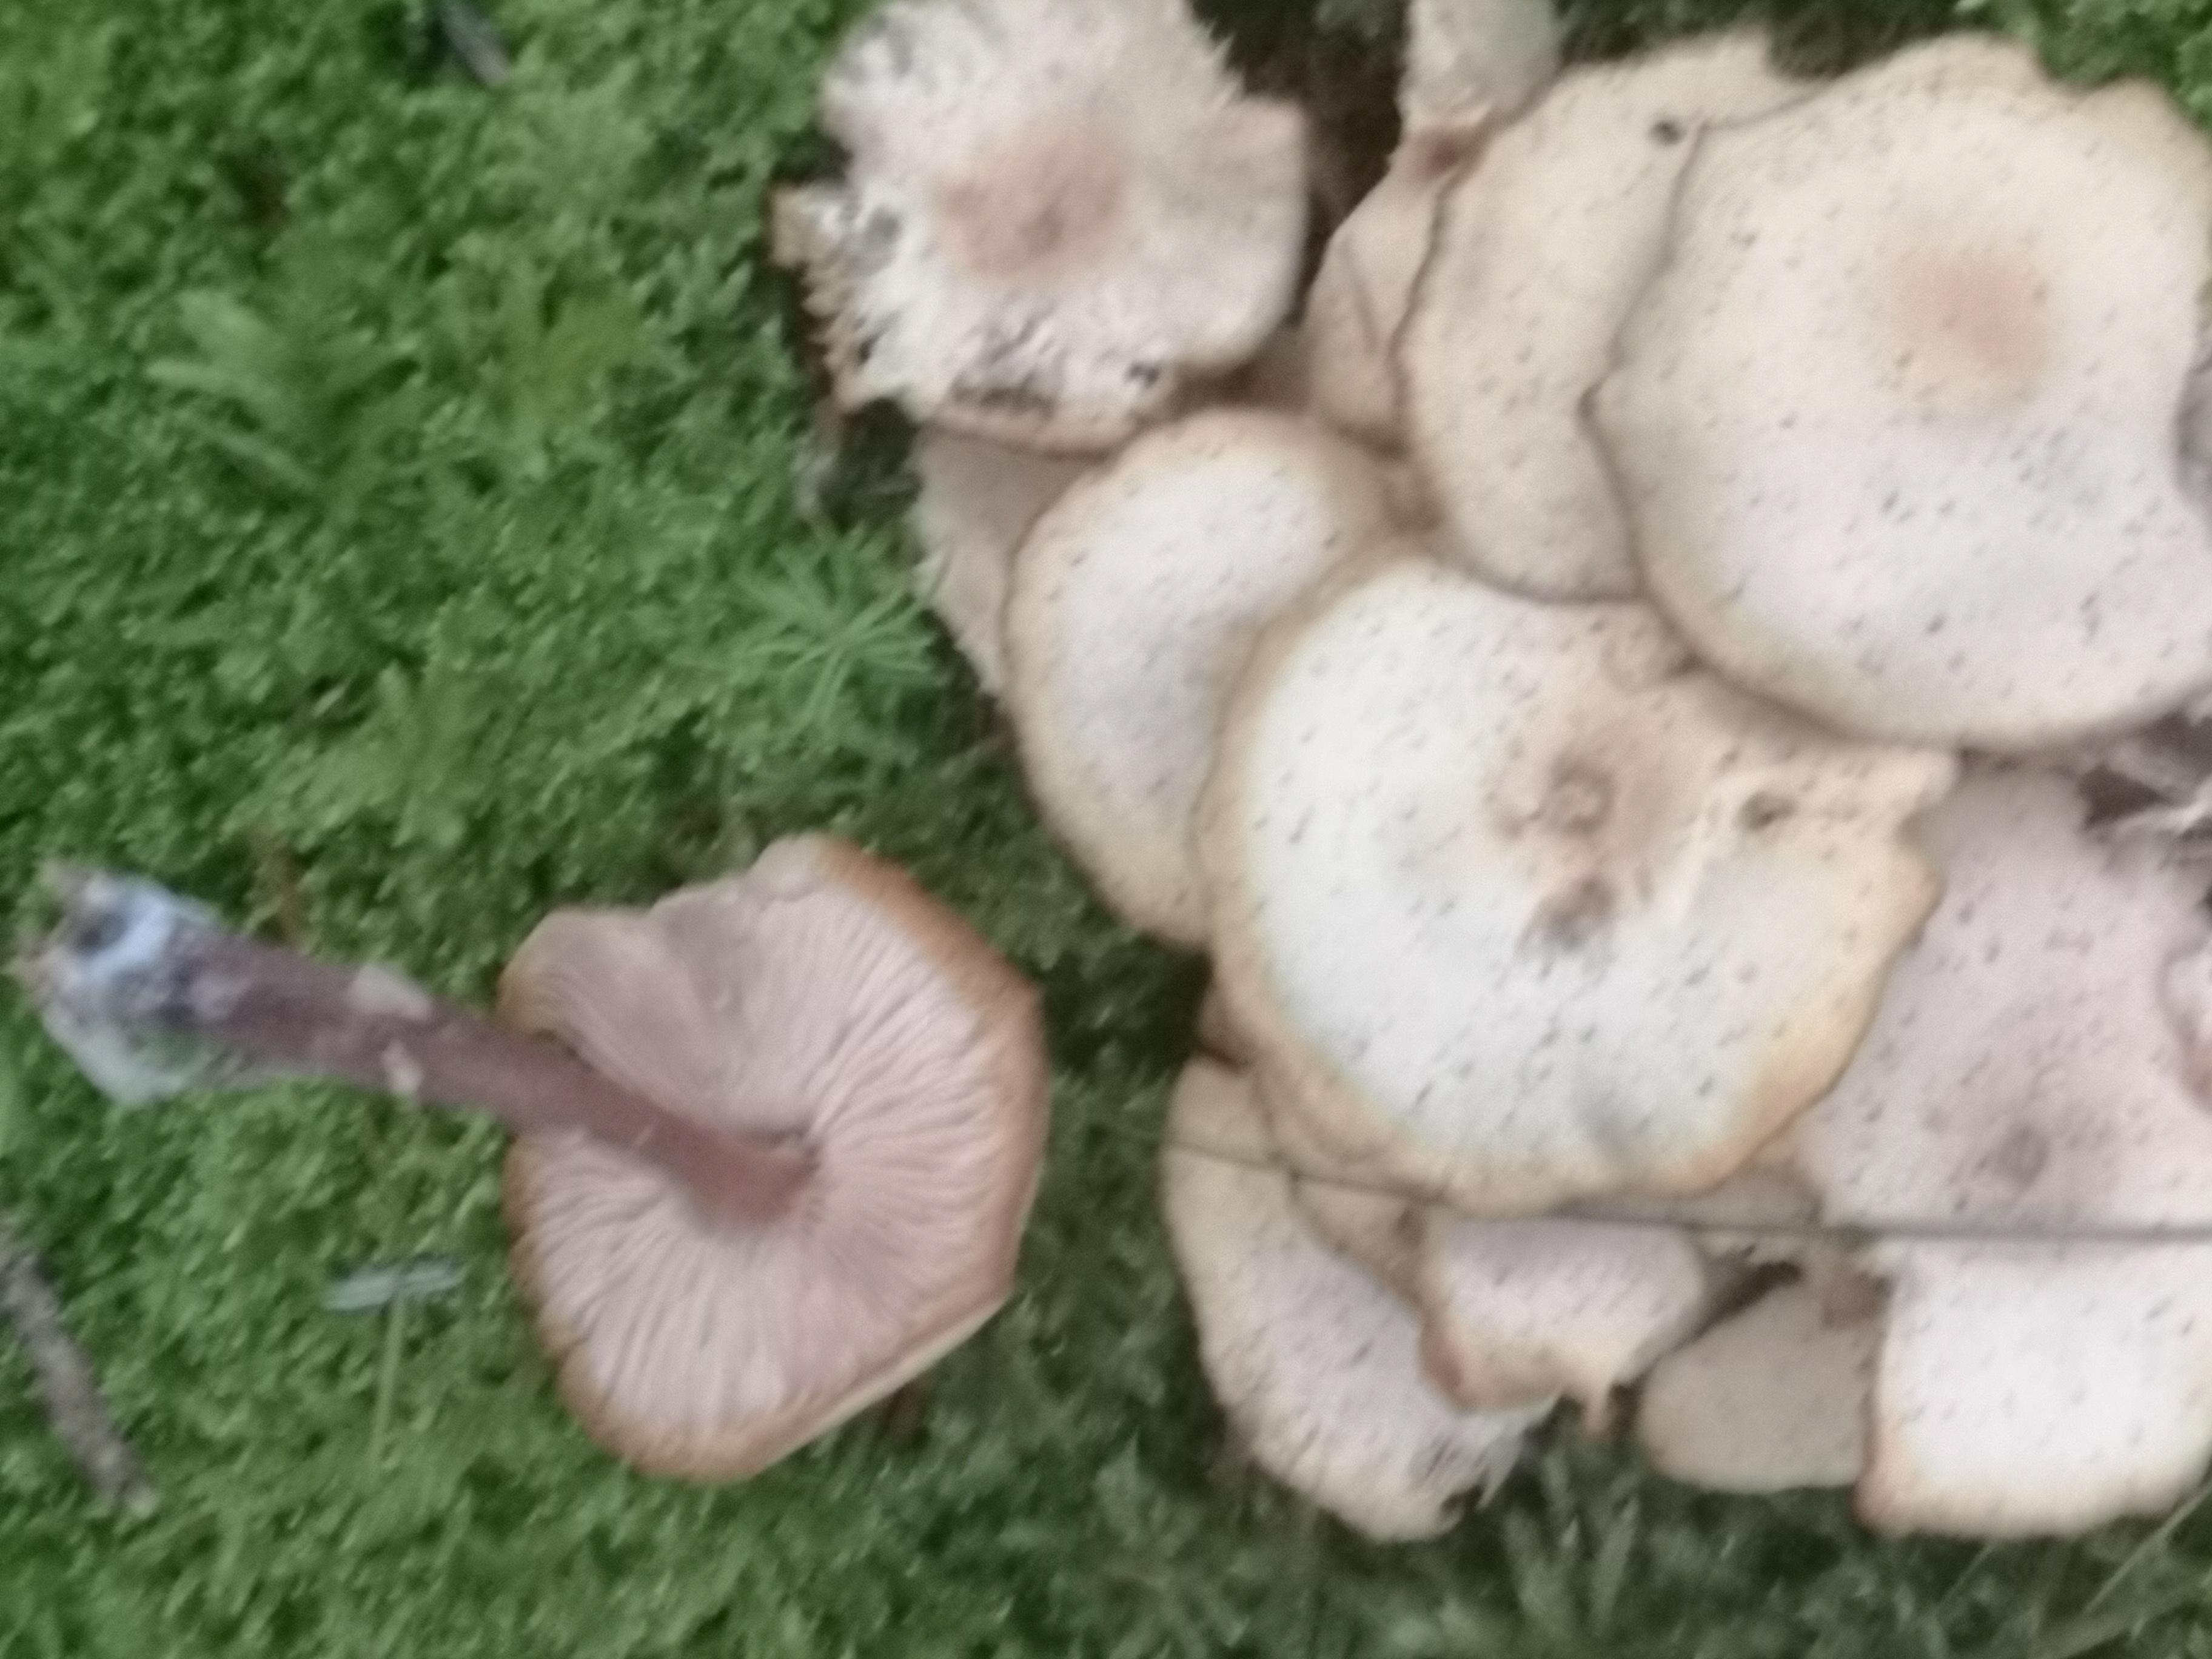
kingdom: Fungi
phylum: Basidiomycota
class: Agaricomycetes
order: Agaricales
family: Omphalotaceae
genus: Gymnopus
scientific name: Gymnopus
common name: fladhat
